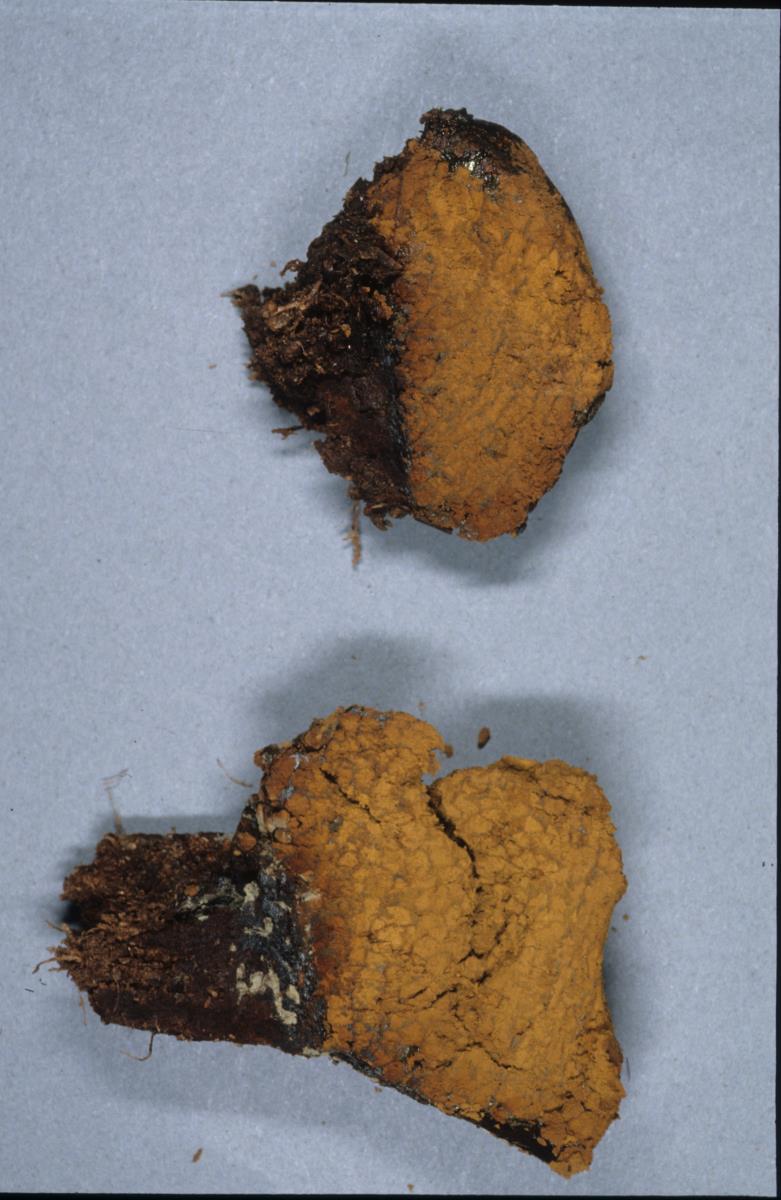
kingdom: Fungi
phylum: Basidiomycota
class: Agaricomycetes
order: Boletales
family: Sclerodermataceae
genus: Pisolithus
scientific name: Pisolithus
